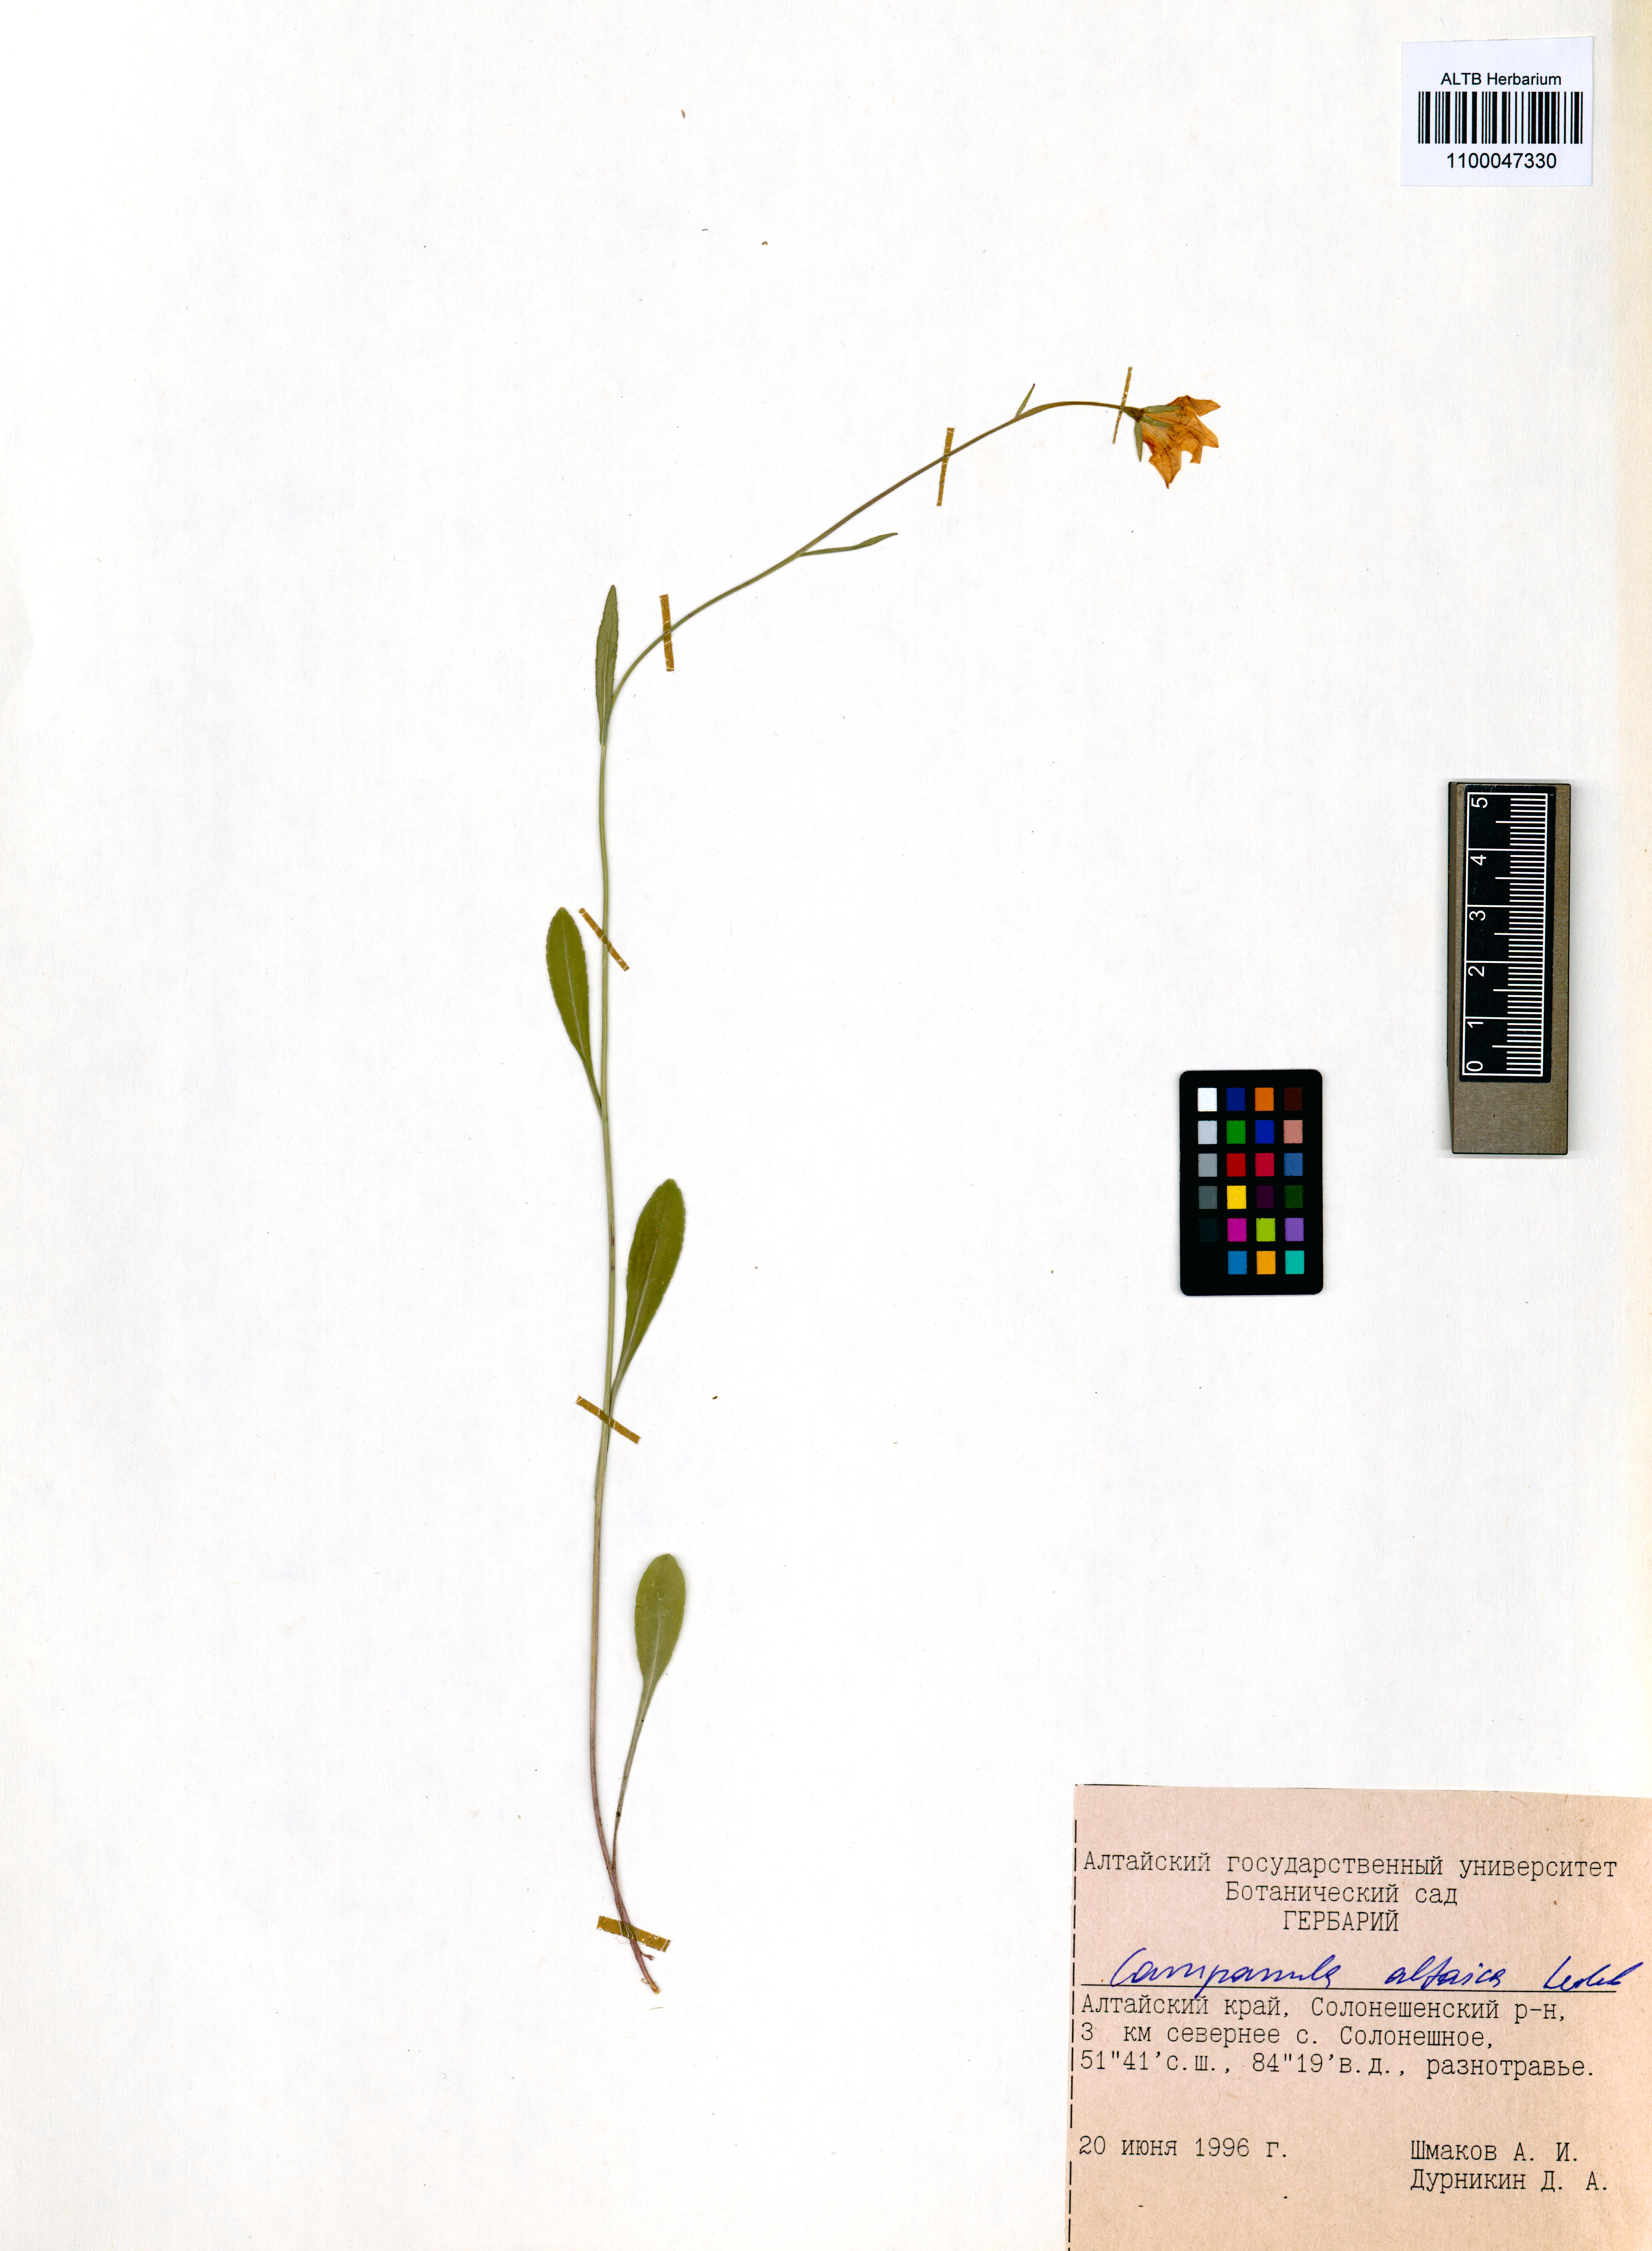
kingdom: Plantae
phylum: Tracheophyta
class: Magnoliopsida
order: Asterales
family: Campanulaceae
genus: Campanula
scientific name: Campanula stevenii
